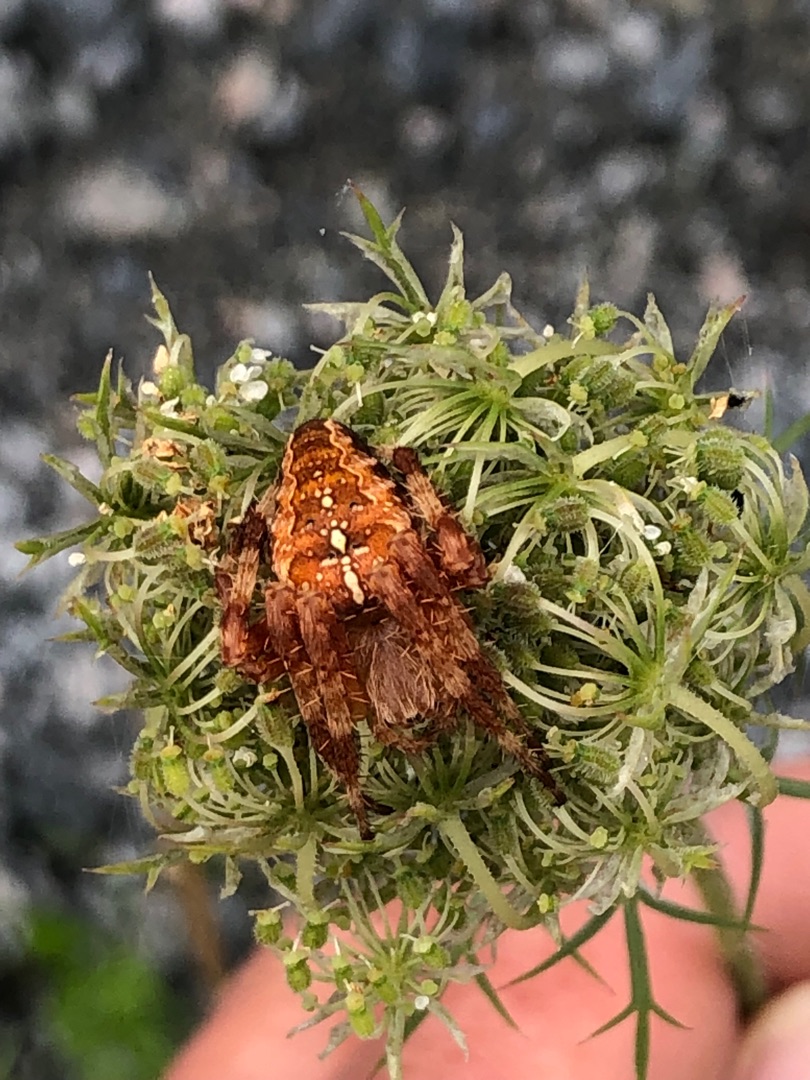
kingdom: Animalia
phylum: Arthropoda
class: Arachnida
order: Araneae
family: Araneidae
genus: Araneus
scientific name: Araneus diadematus
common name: Korsedderkop
